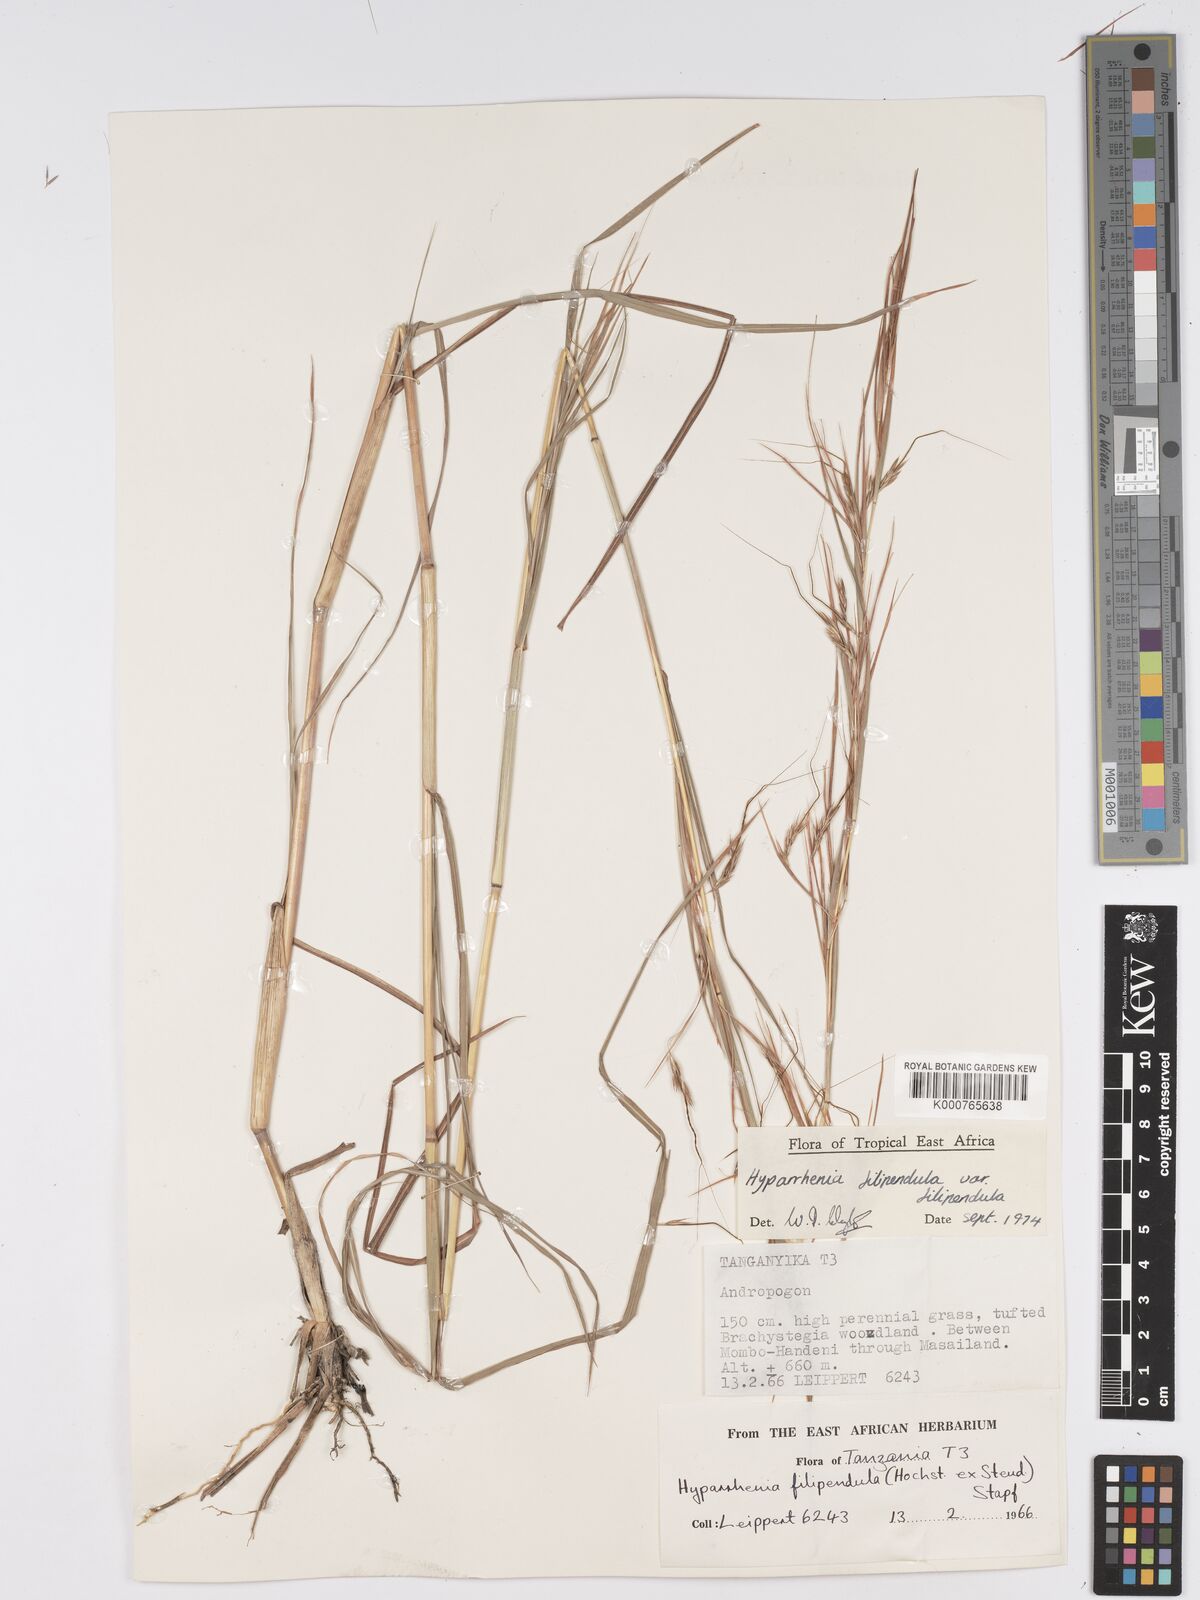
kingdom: Plantae
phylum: Tracheophyta
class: Liliopsida
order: Poales
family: Poaceae
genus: Hyparrhenia
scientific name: Hyparrhenia filipendula
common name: Tambookie grass
